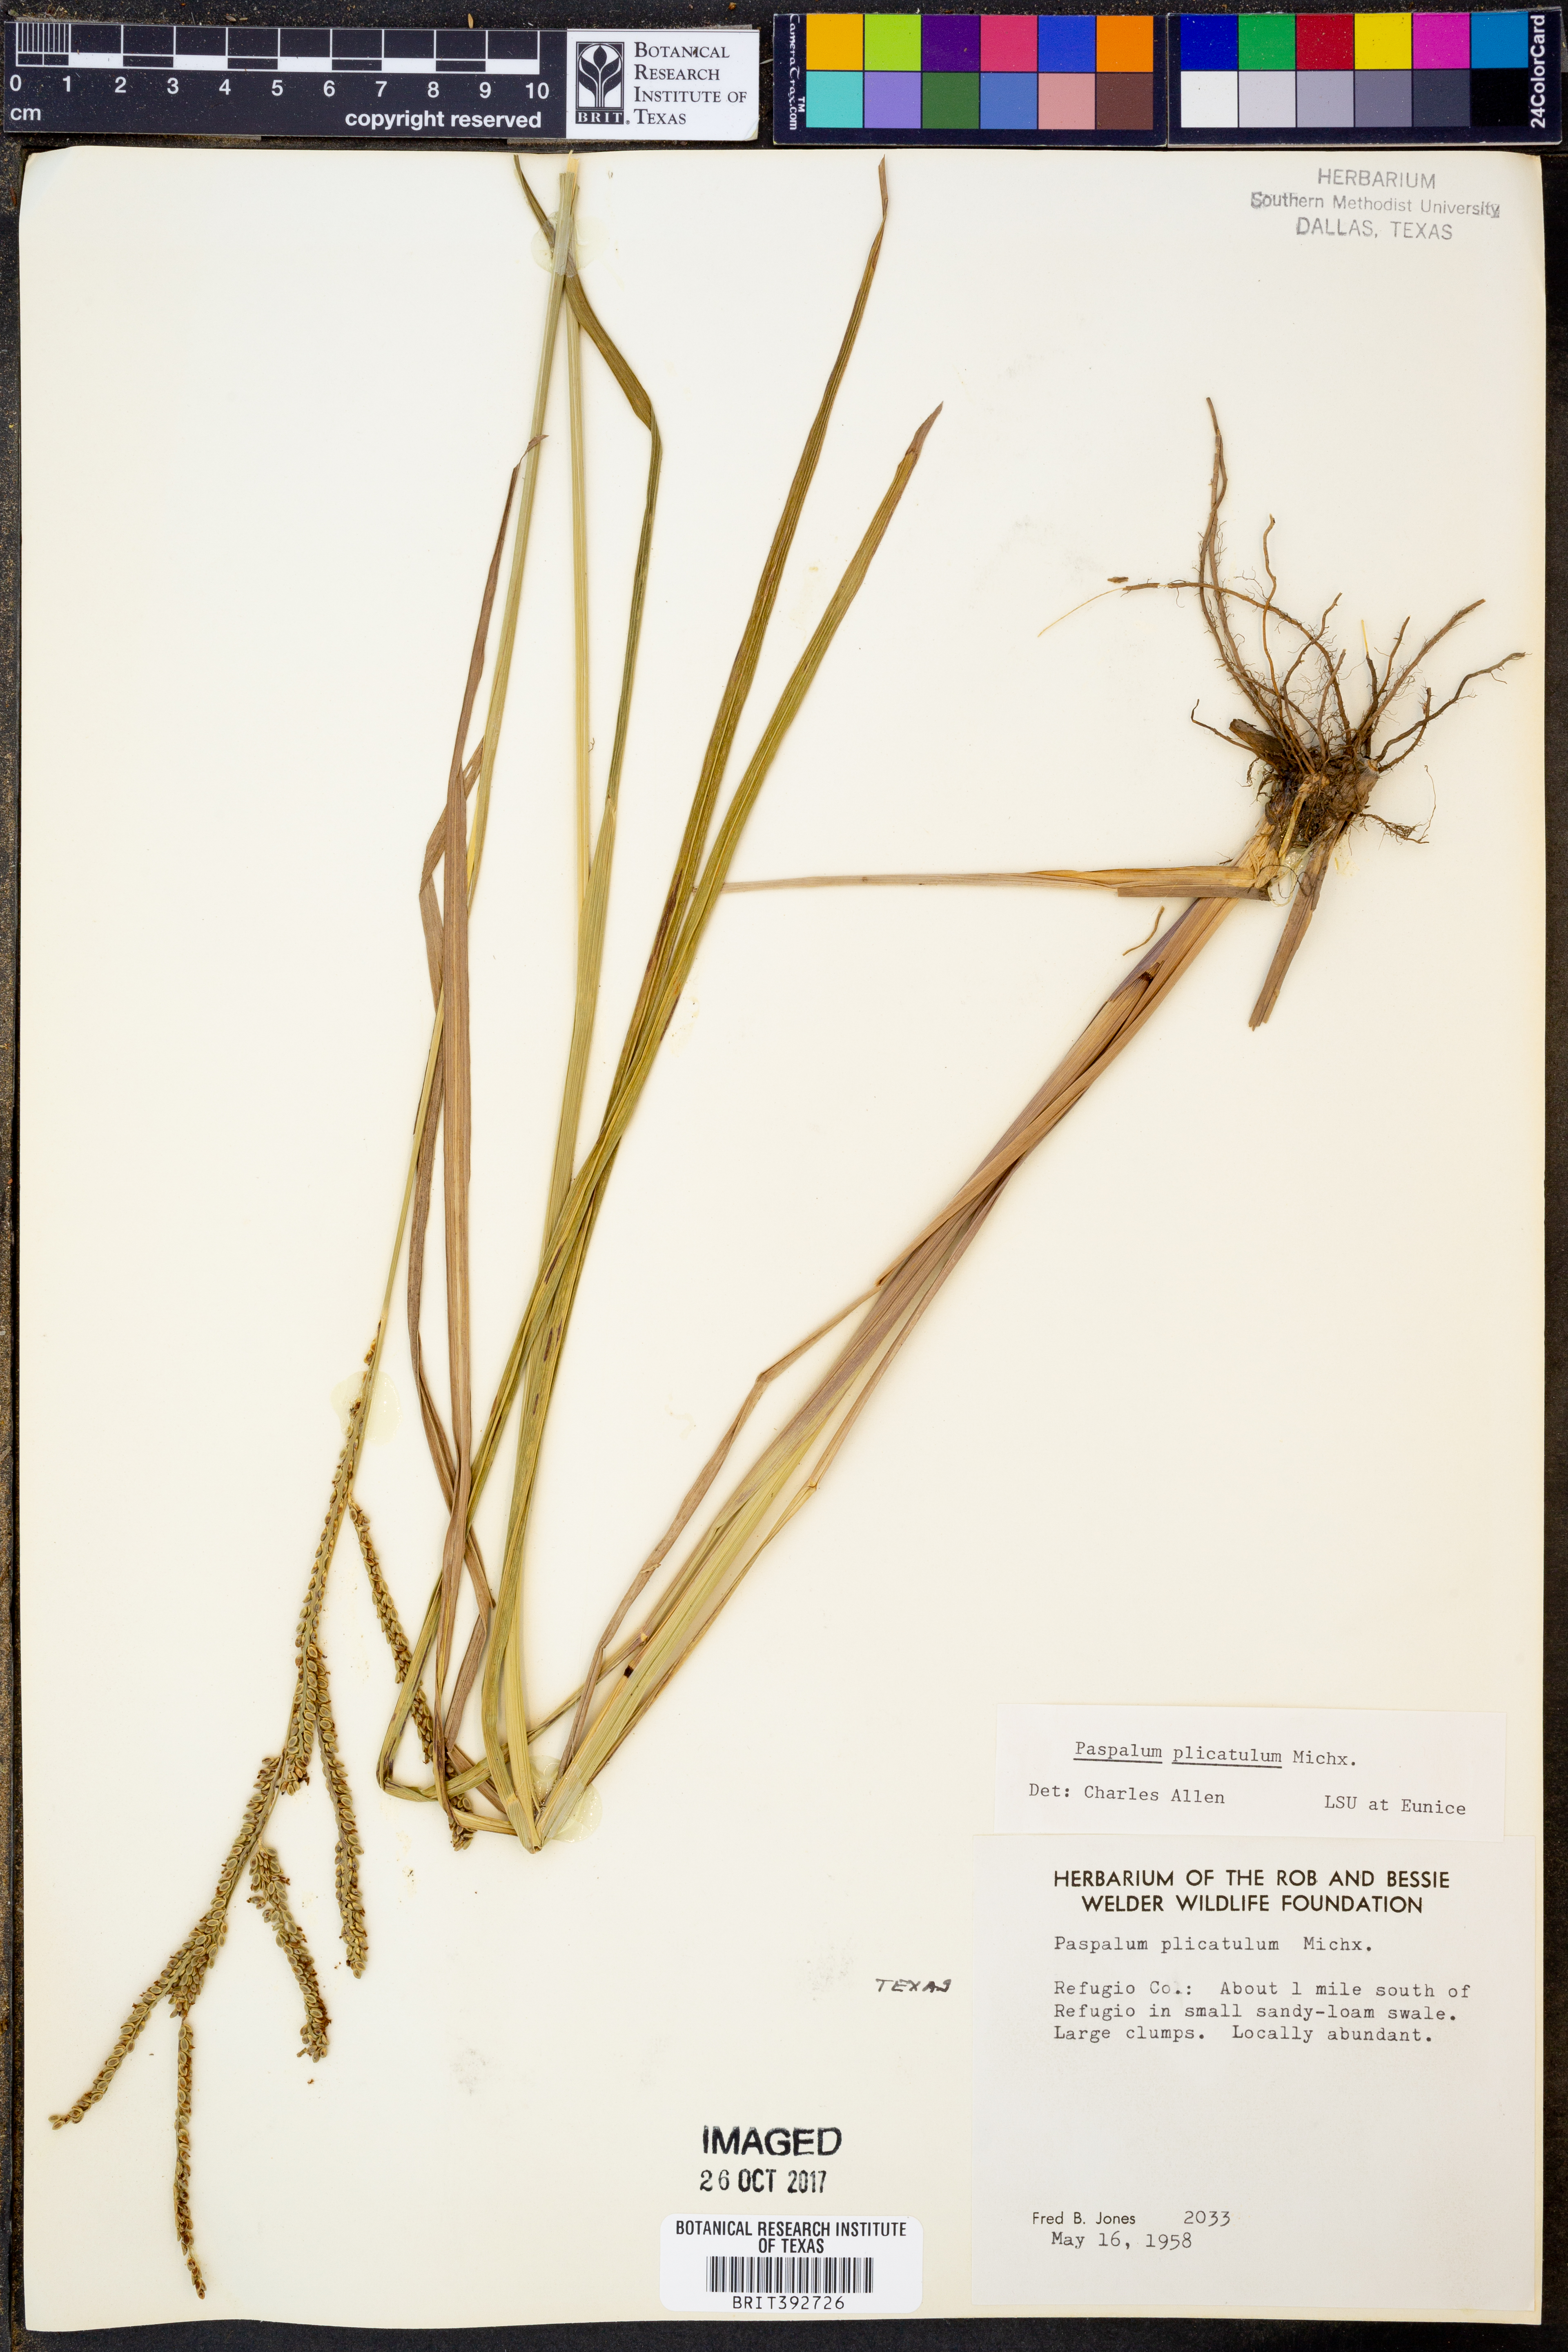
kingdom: Plantae
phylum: Tracheophyta
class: Liliopsida
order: Poales
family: Poaceae
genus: Paspalum
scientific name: Paspalum plicatulum
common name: Top paspalum
